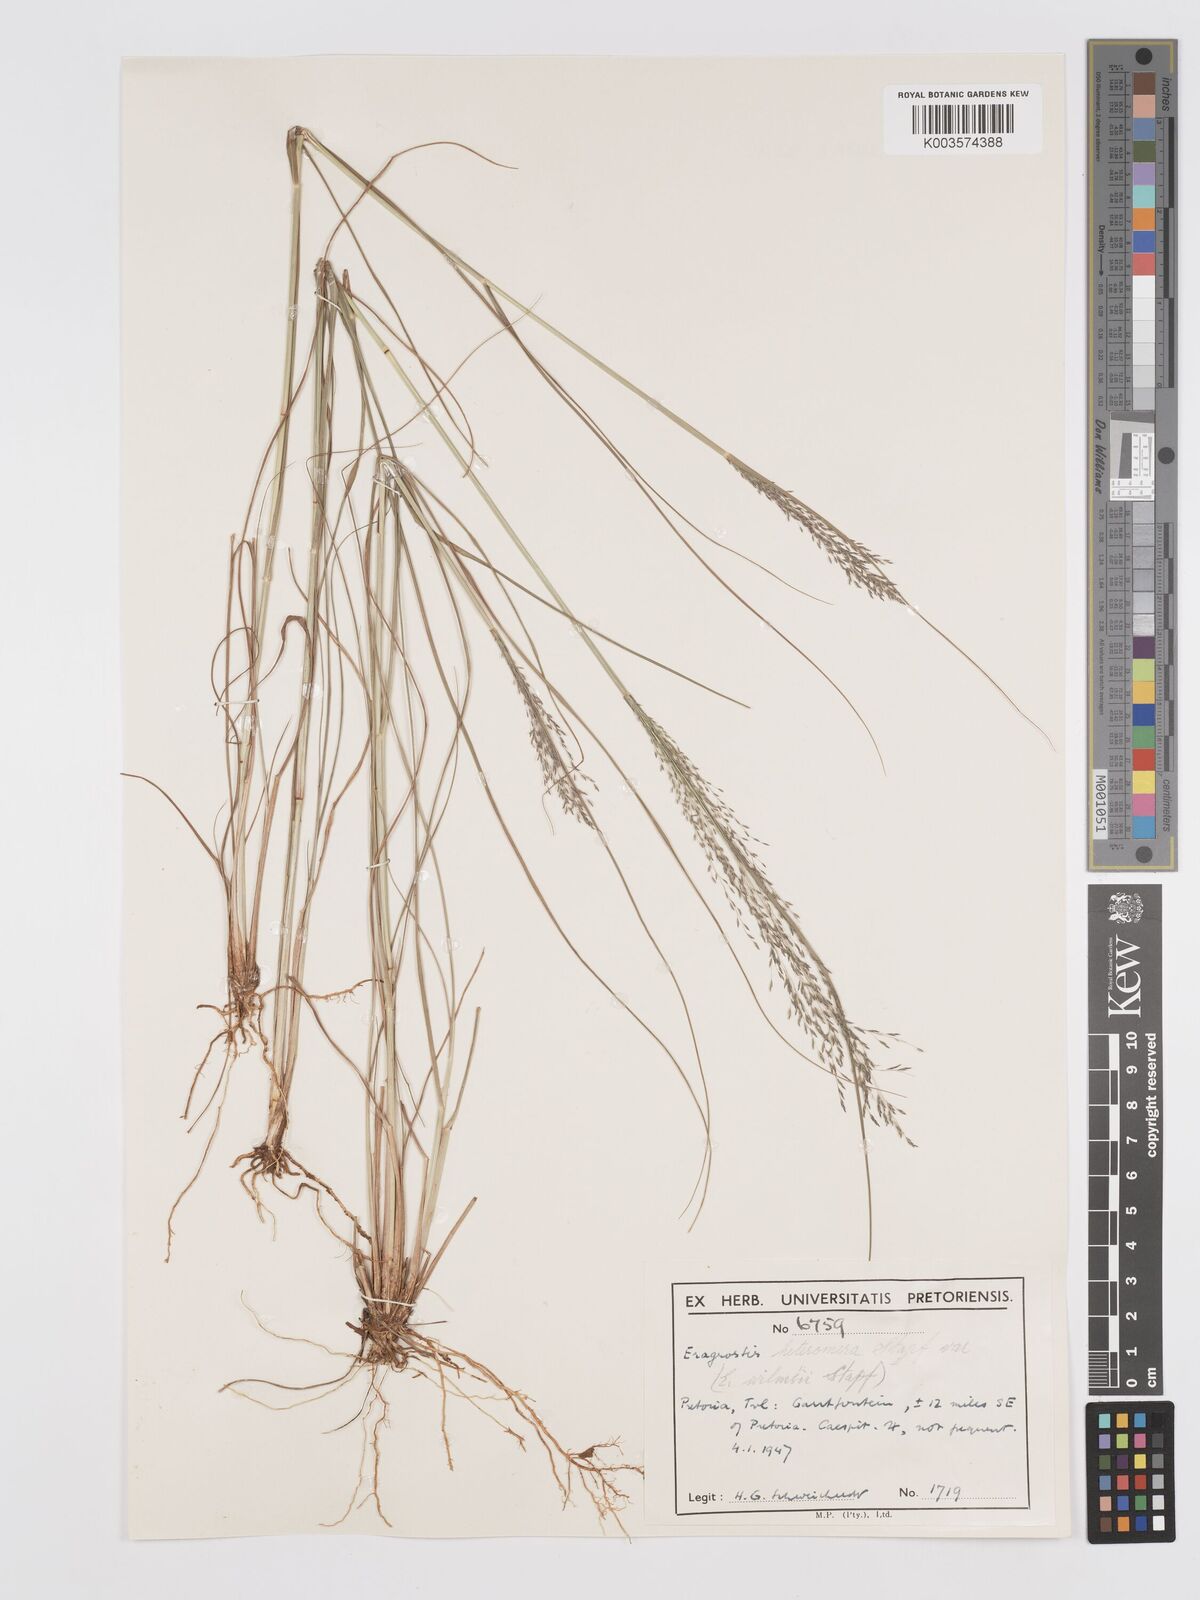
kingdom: Plantae
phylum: Tracheophyta
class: Liliopsida
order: Poales
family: Poaceae
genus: Eragrostis
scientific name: Eragrostis heteromera
